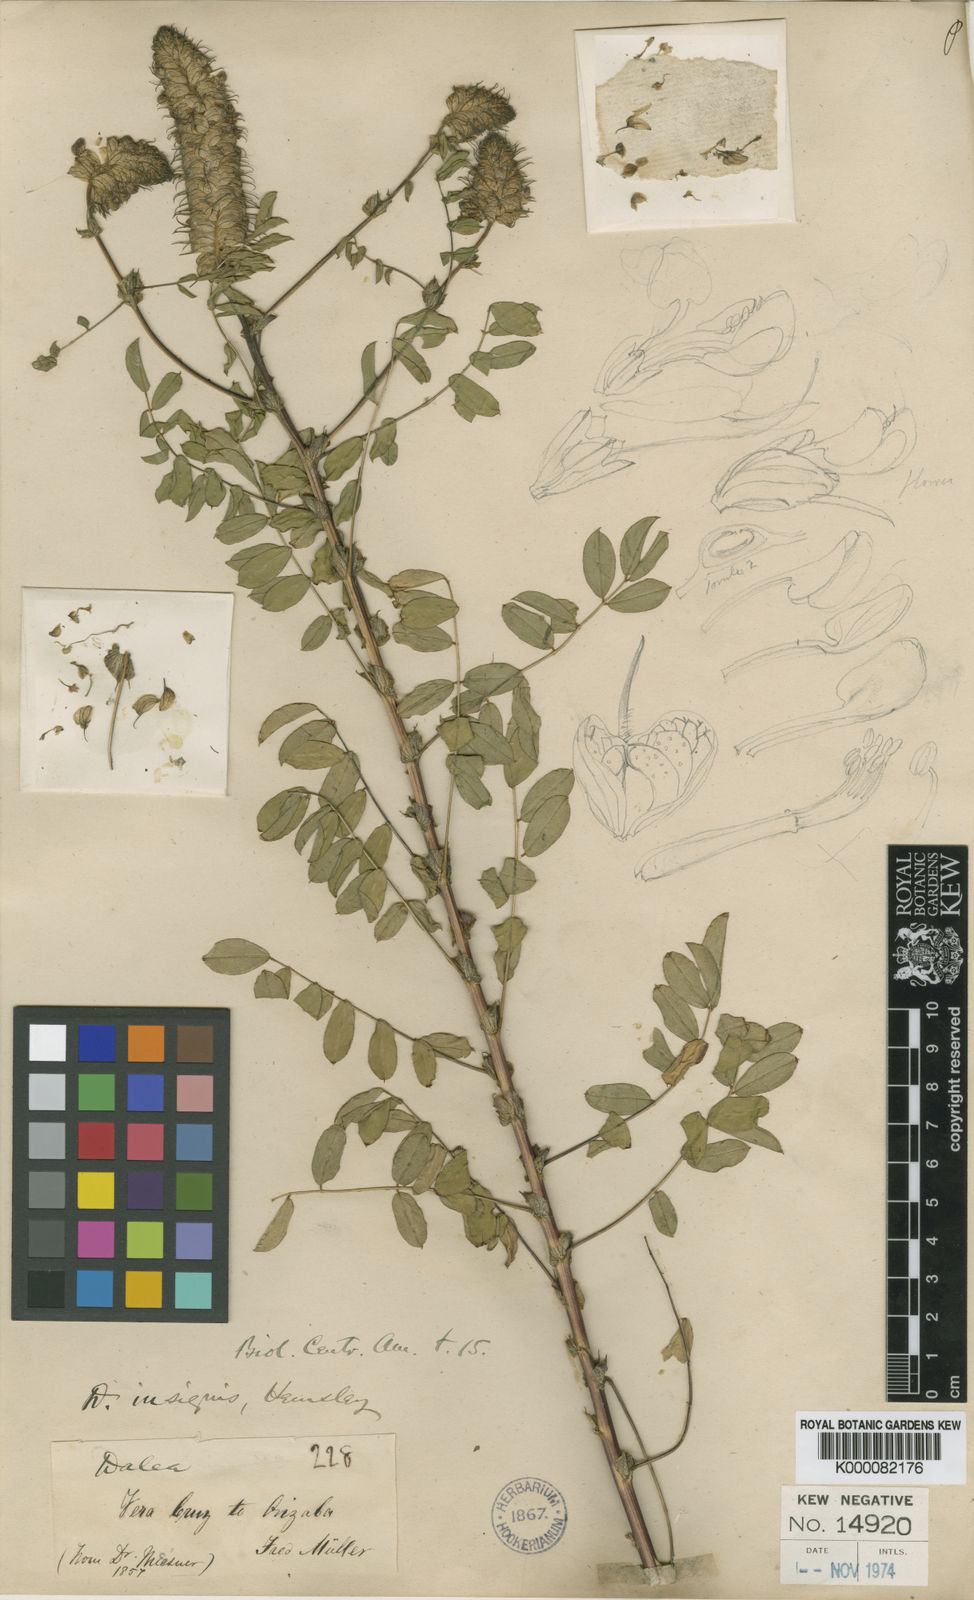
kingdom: Plantae
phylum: Tracheophyta
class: Magnoliopsida
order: Fabales
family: Fabaceae
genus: Dalea
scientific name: Dalea
